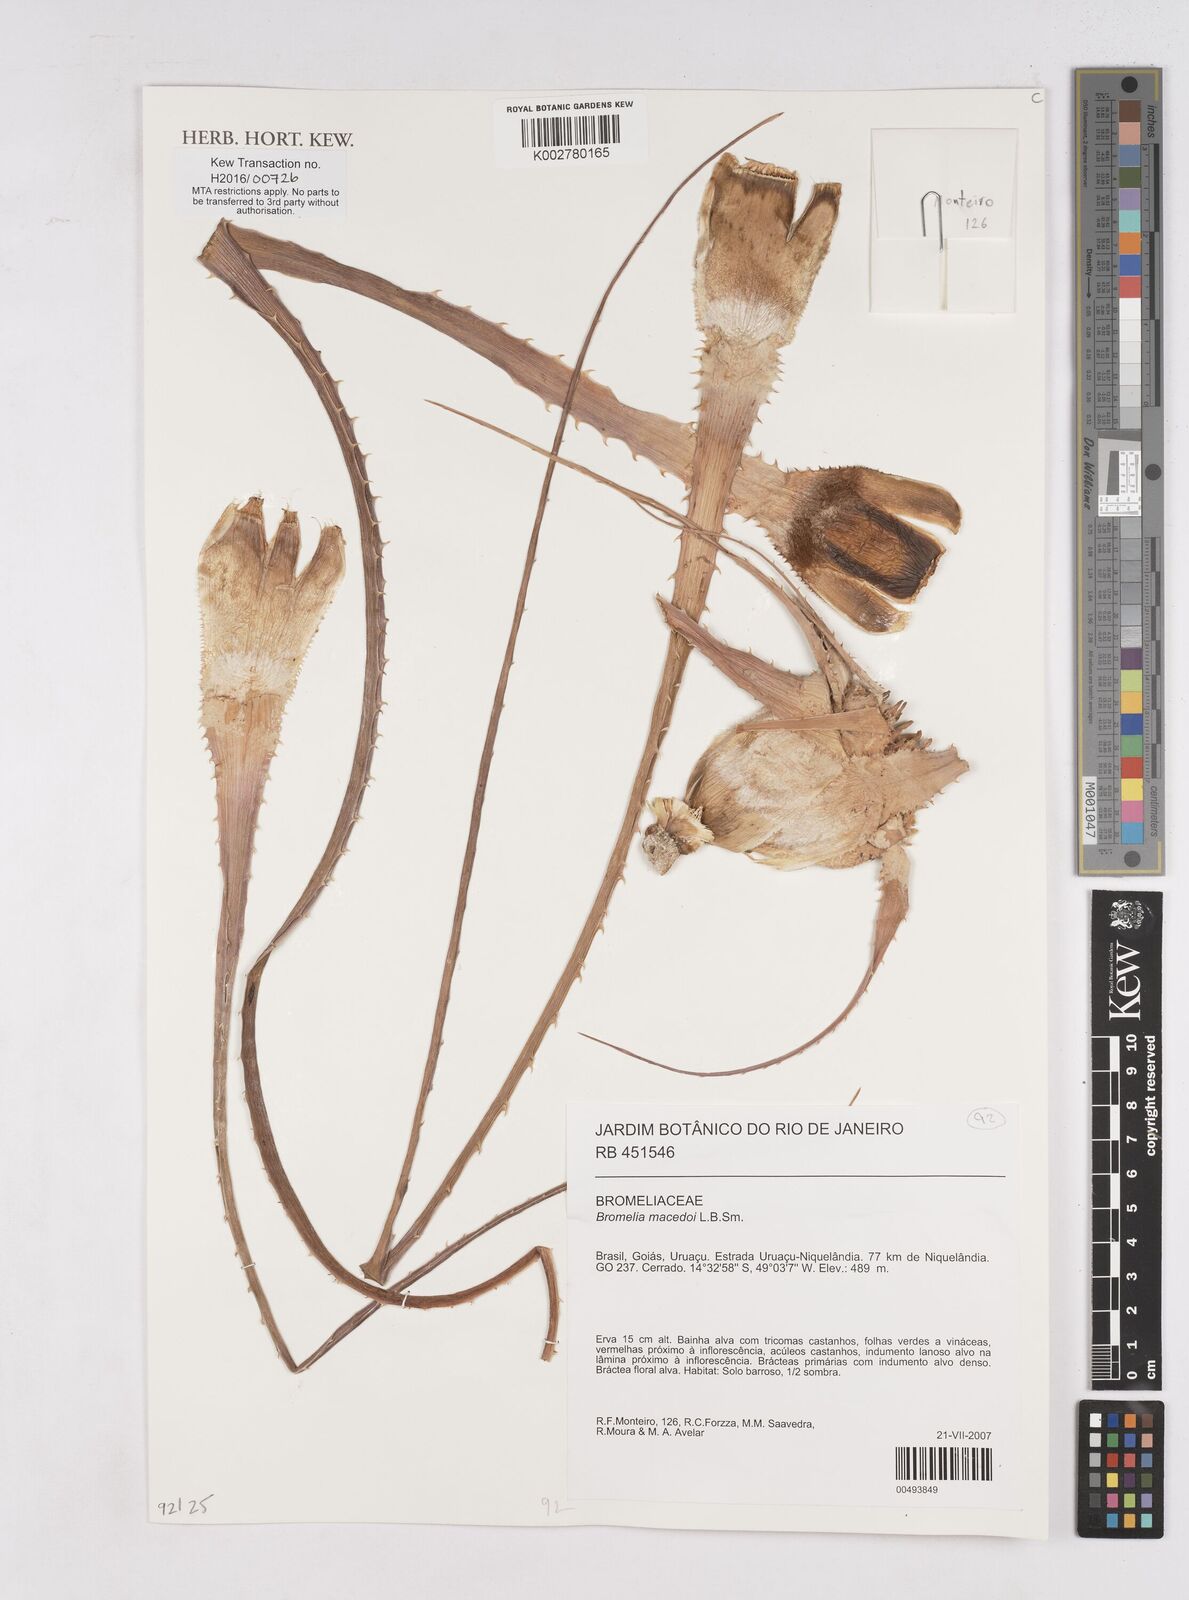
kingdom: Plantae
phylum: Tracheophyta
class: Liliopsida
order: Poales
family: Bromeliaceae
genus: Bromelia
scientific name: Bromelia macedoi
